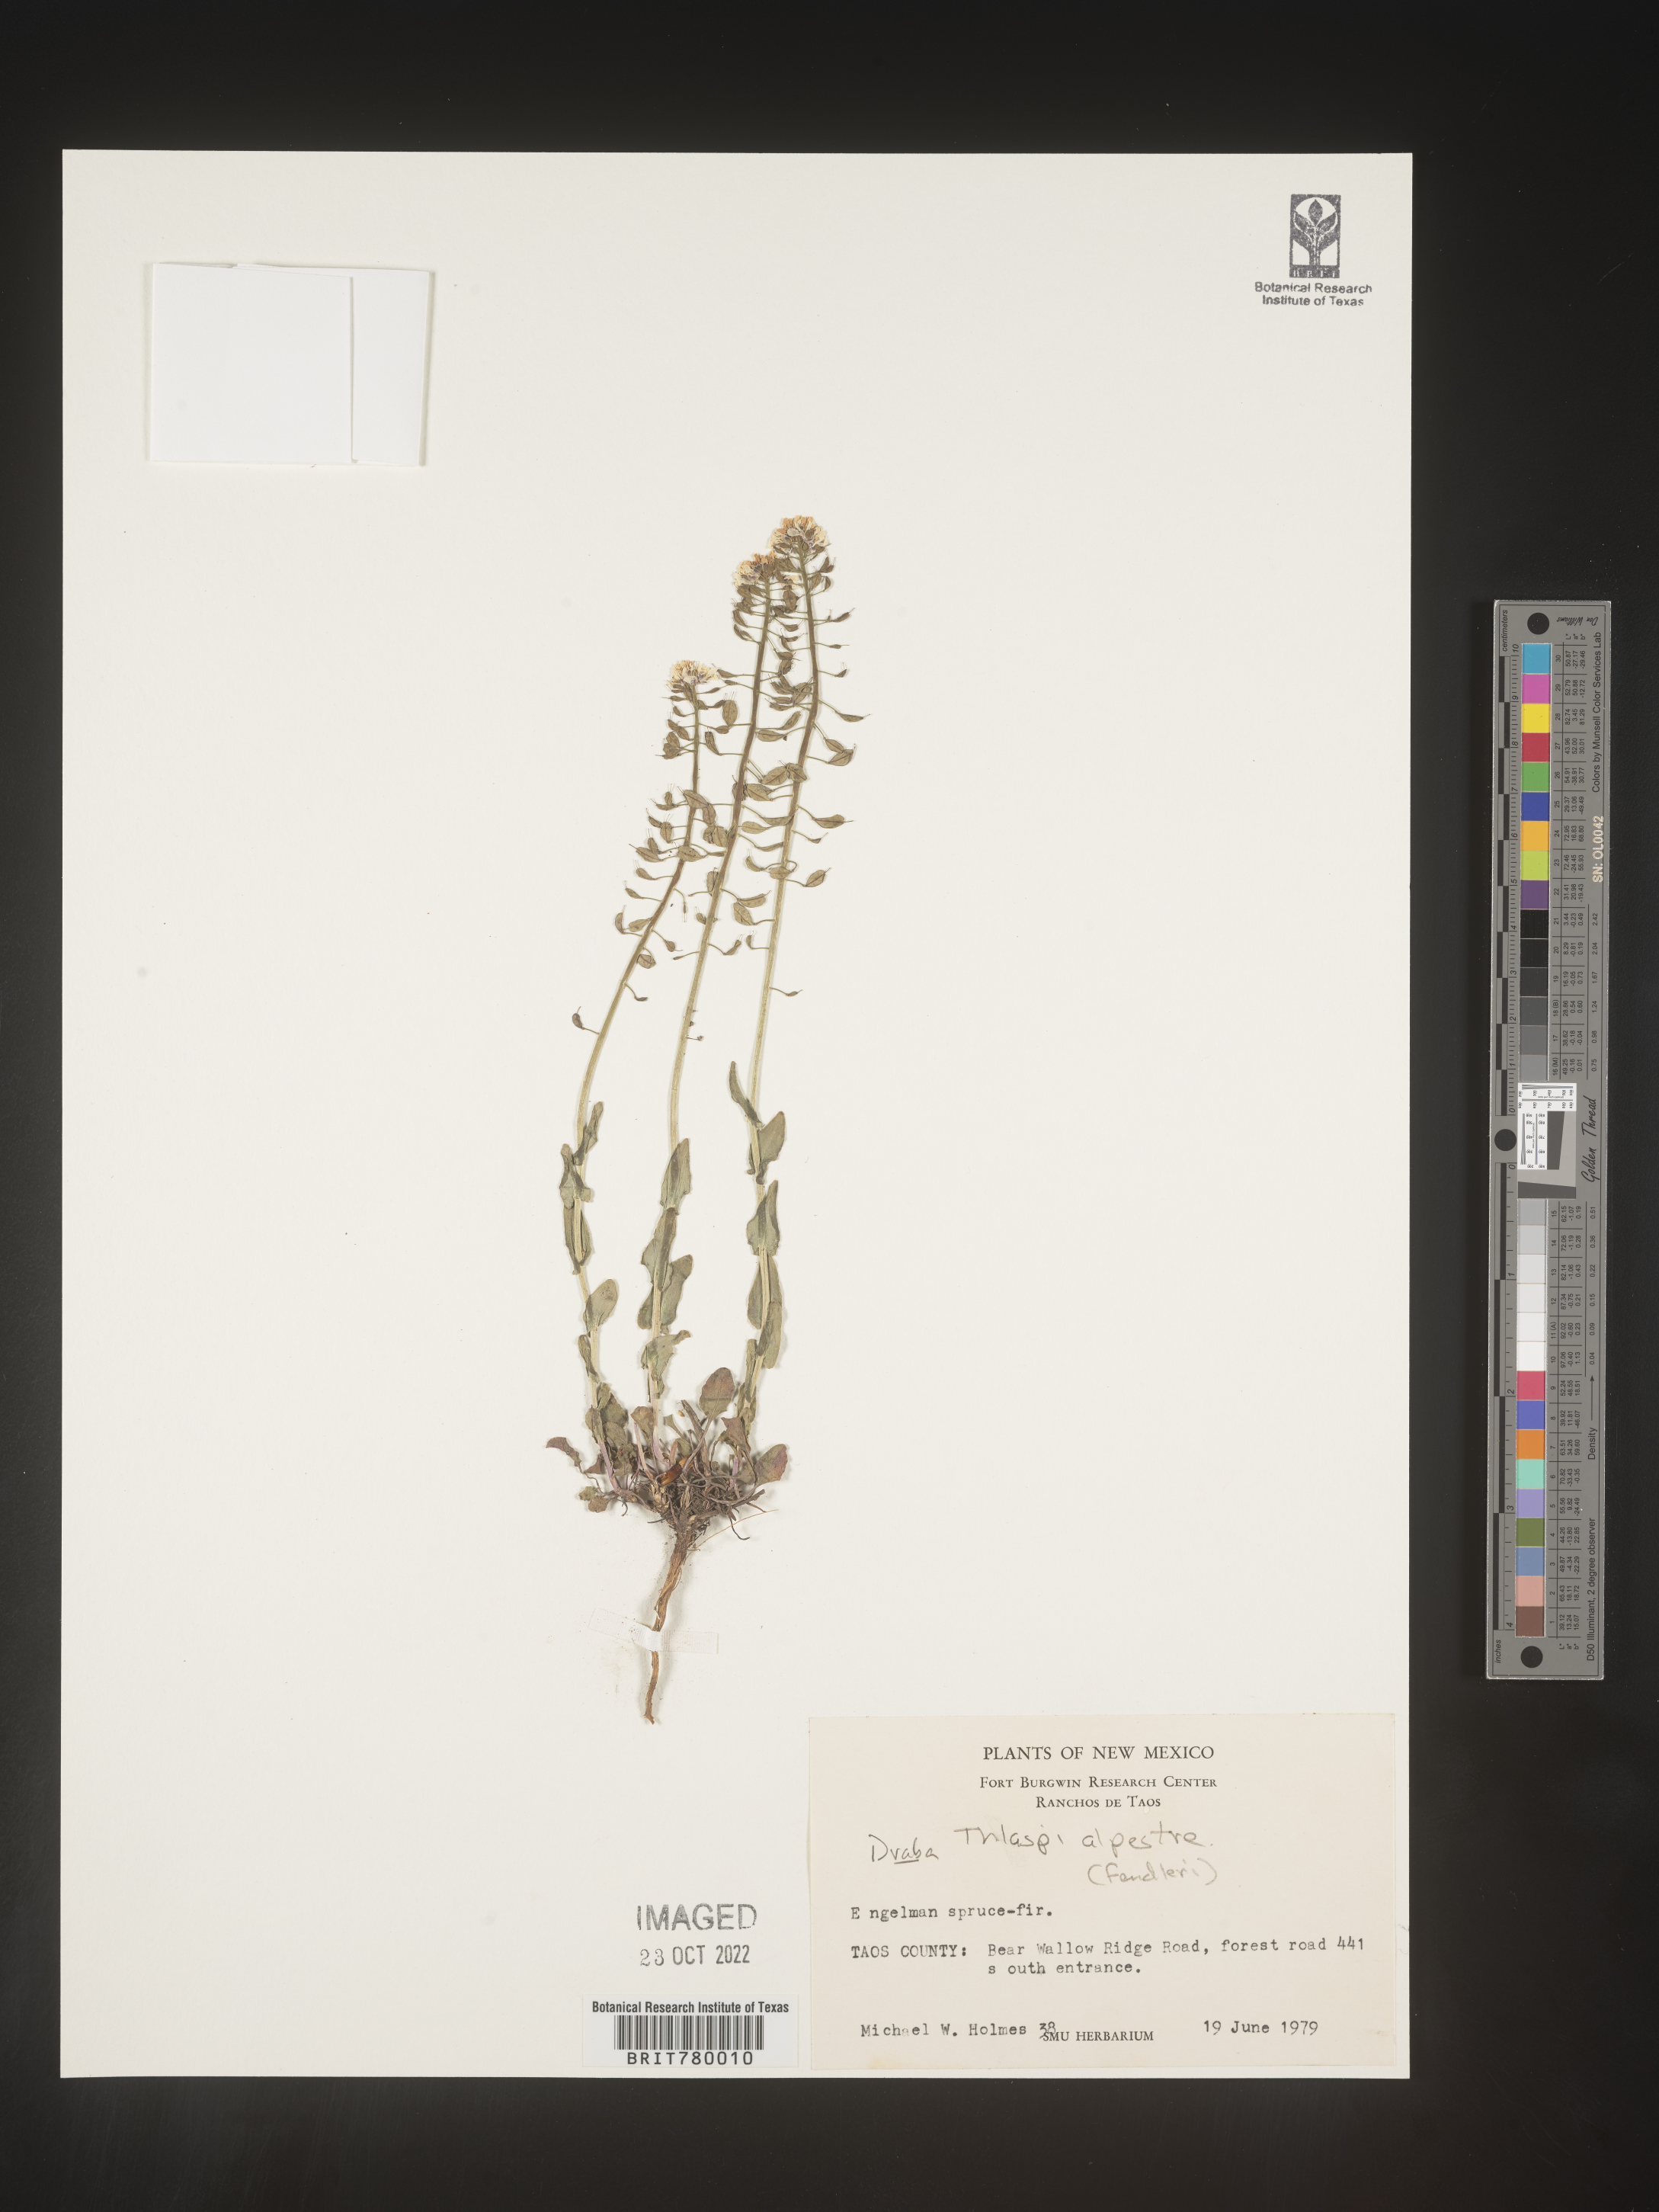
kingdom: Plantae
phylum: Tracheophyta
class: Magnoliopsida
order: Brassicales
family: Brassicaceae
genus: Noccaea
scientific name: Noccaea alpestris
